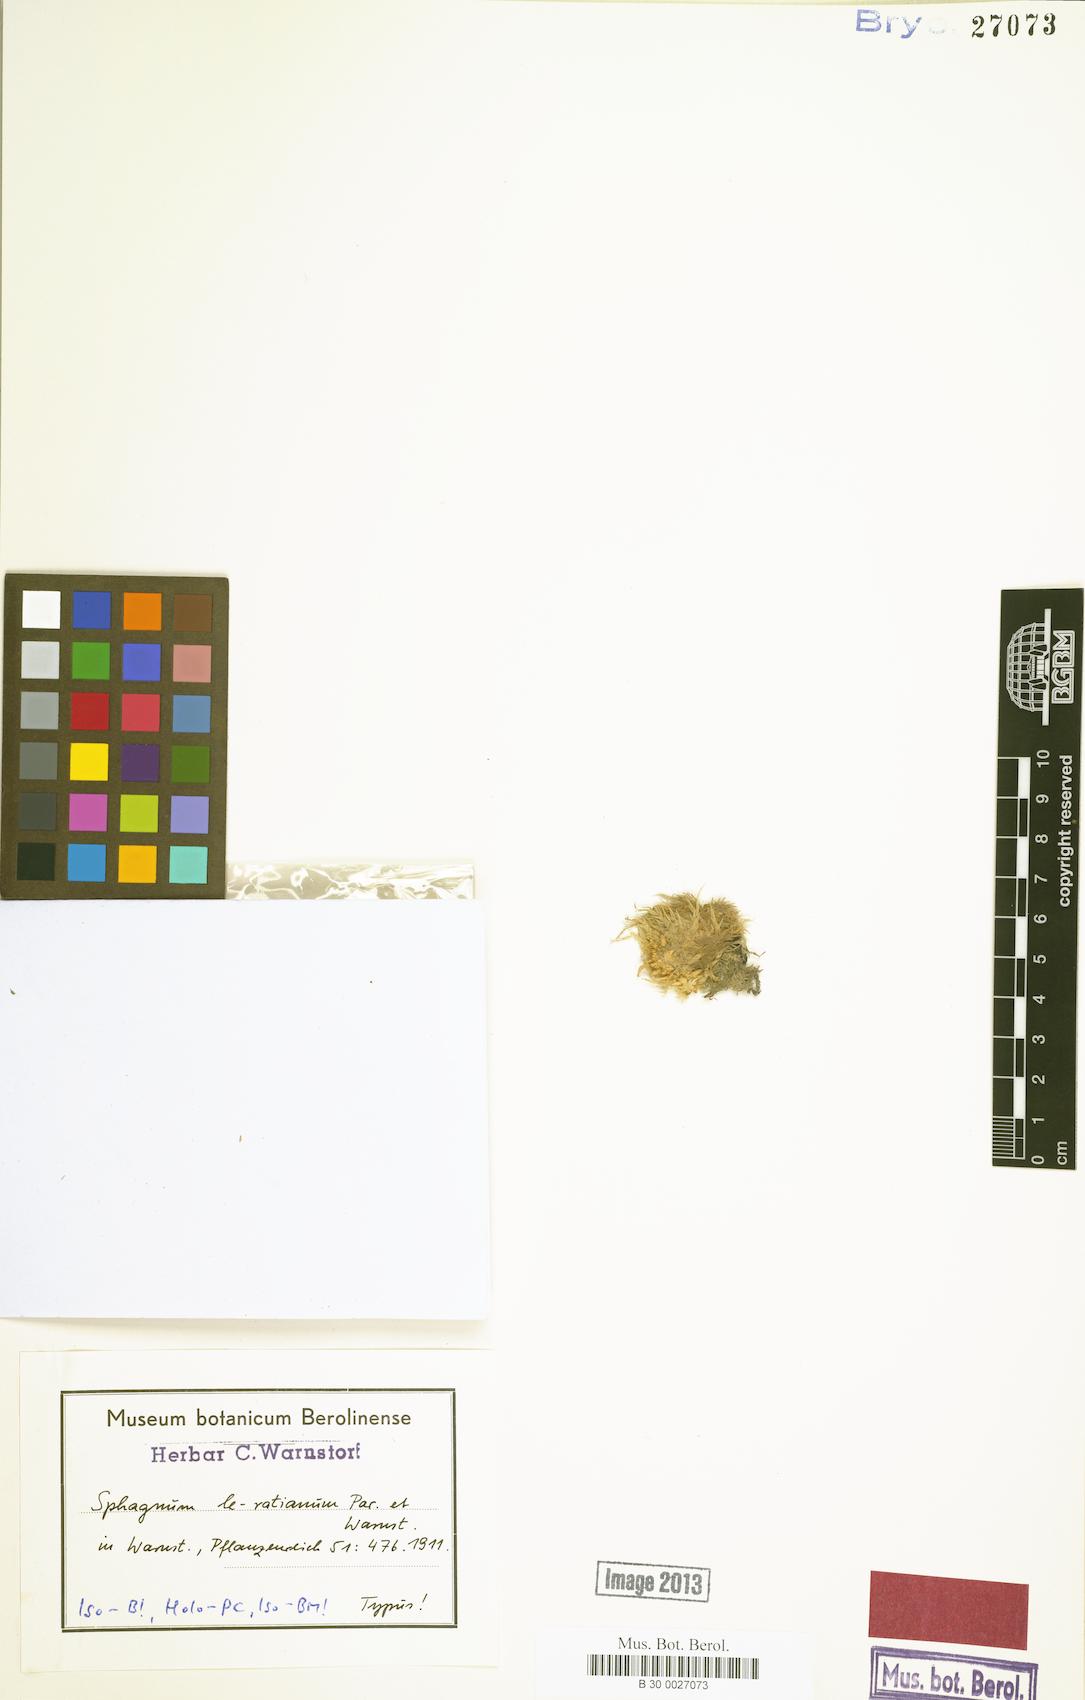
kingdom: Plantae
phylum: Bryophyta
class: Sphagnopsida
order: Sphagnales
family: Sphagnaceae
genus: Sphagnum
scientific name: Sphagnum cristatum
